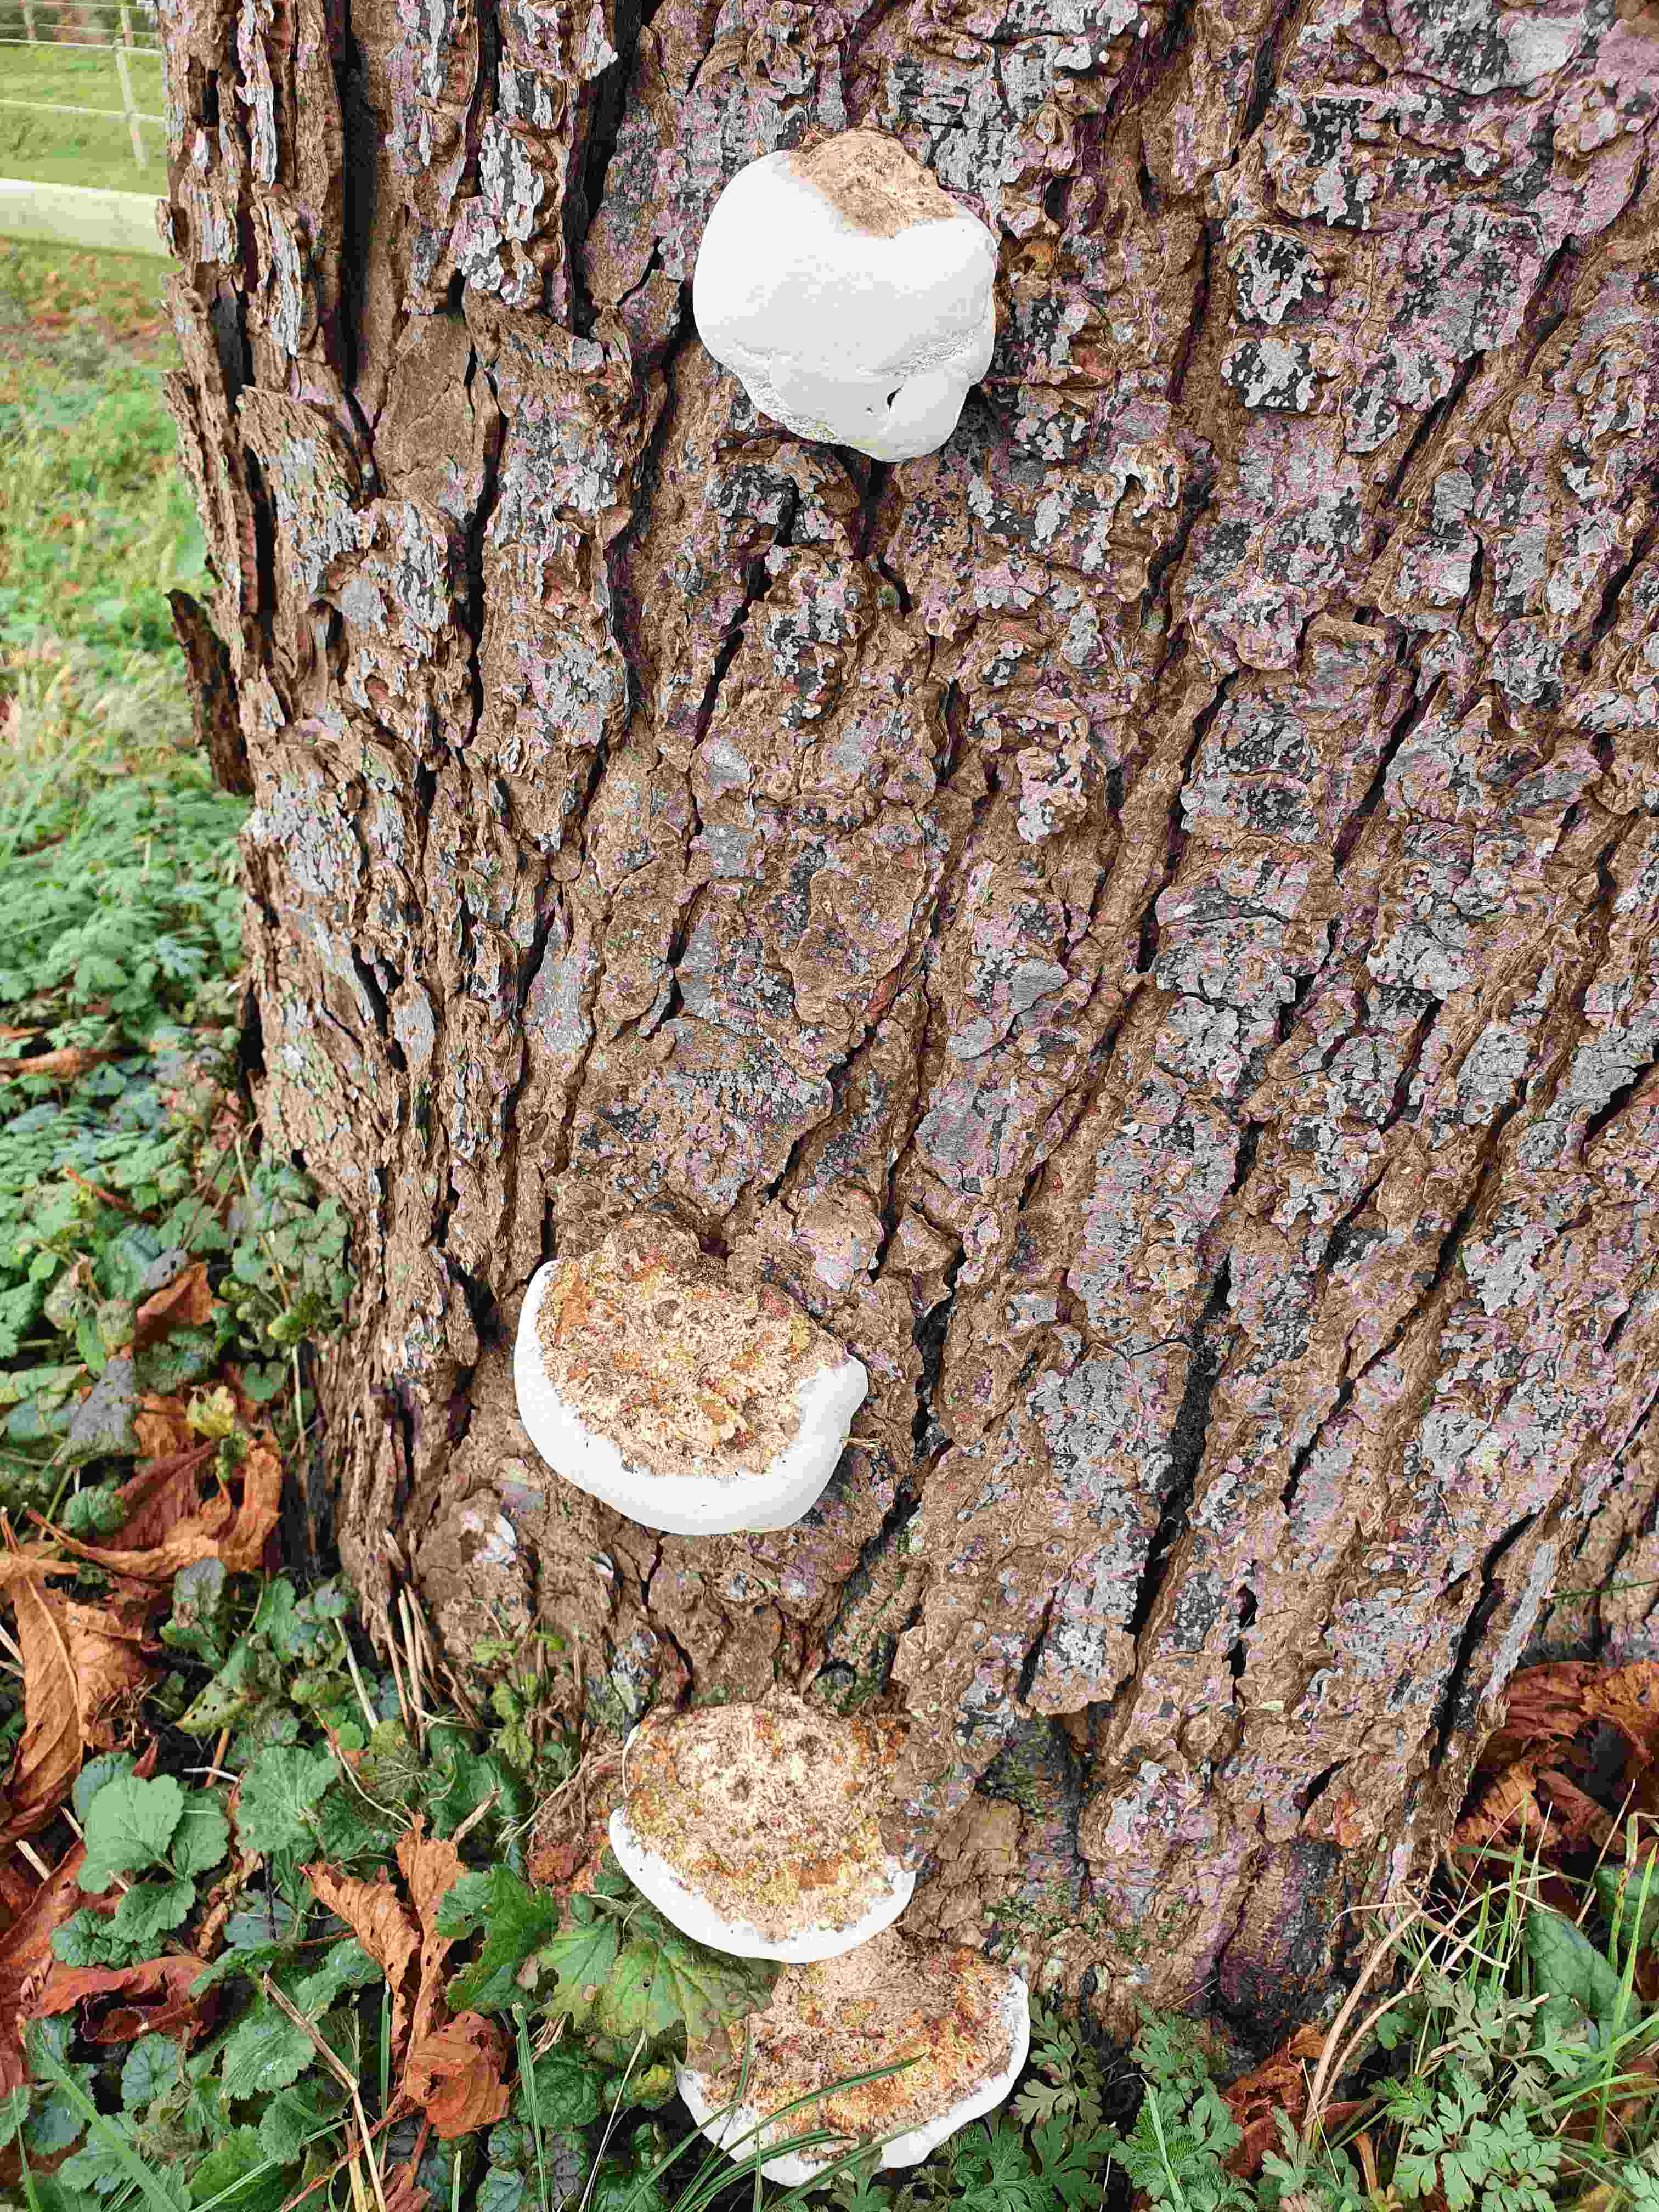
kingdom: Fungi
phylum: Basidiomycota
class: Agaricomycetes
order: Polyporales
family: Polyporaceae
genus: Fomes
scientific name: Fomes fomentarius
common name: tøndersvamp
